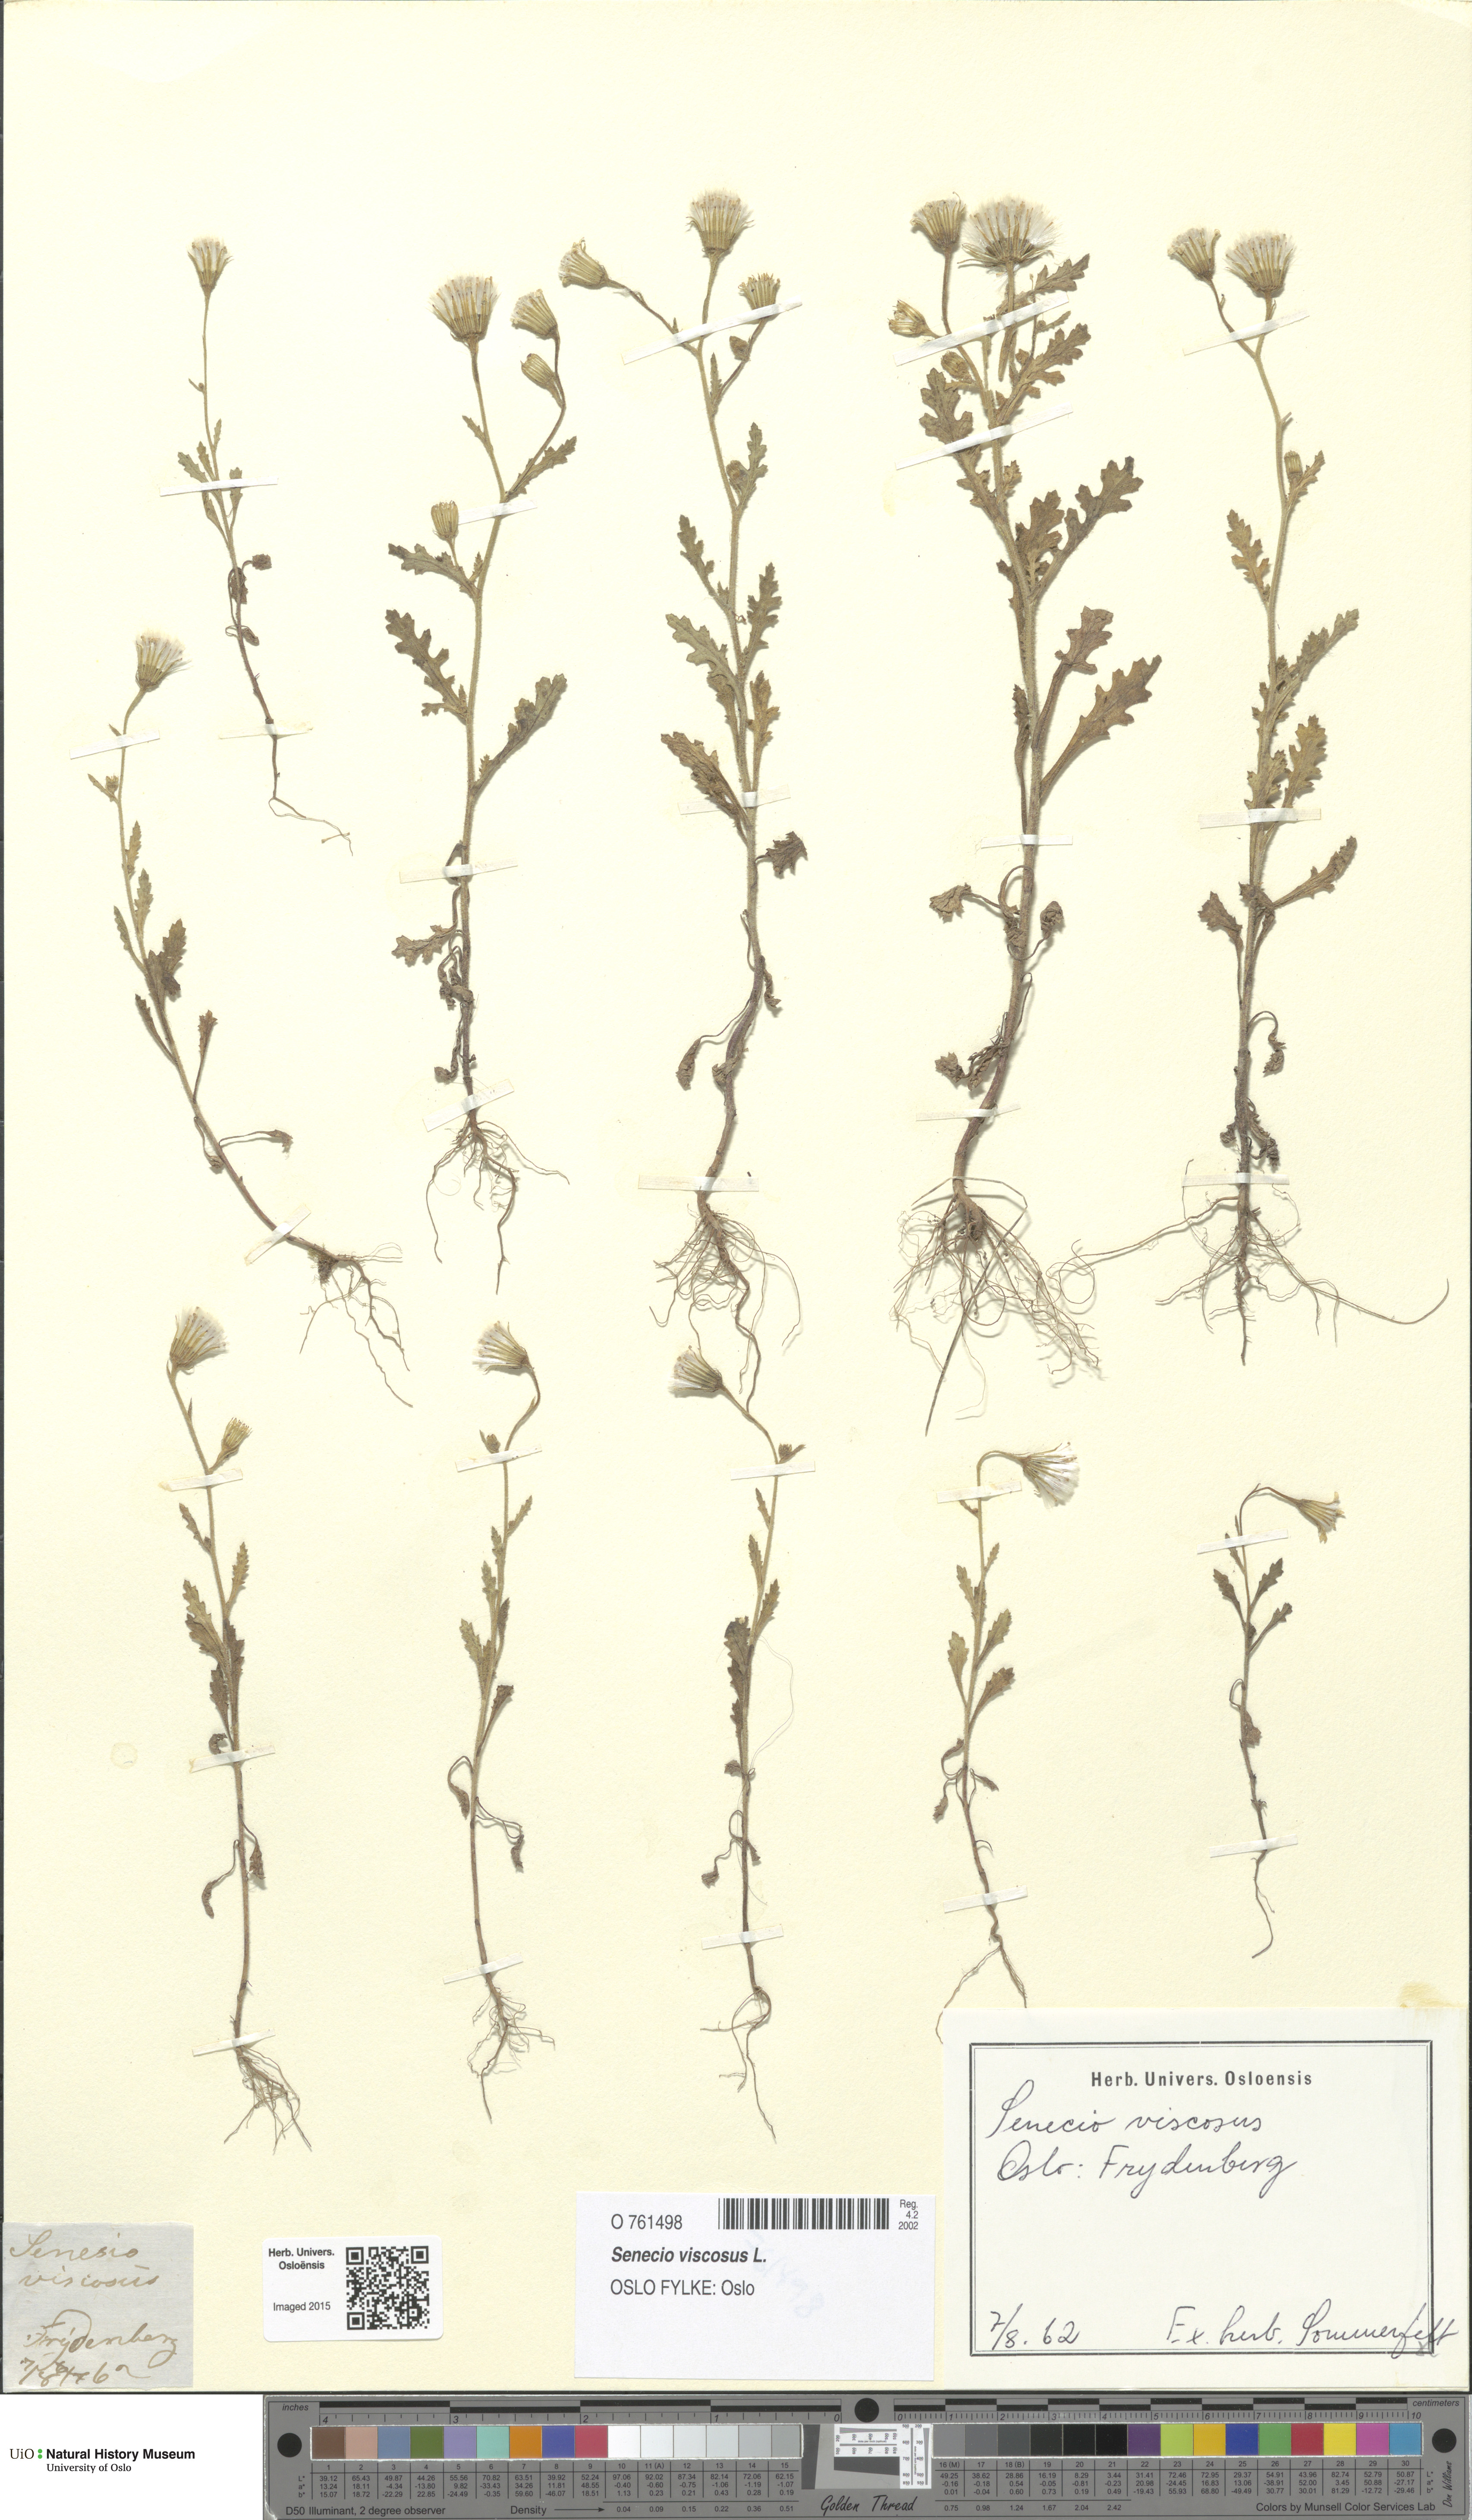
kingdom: Plantae
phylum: Tracheophyta
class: Magnoliopsida
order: Asterales
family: Asteraceae
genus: Senecio
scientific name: Senecio viscosus
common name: Sticky groundsel
